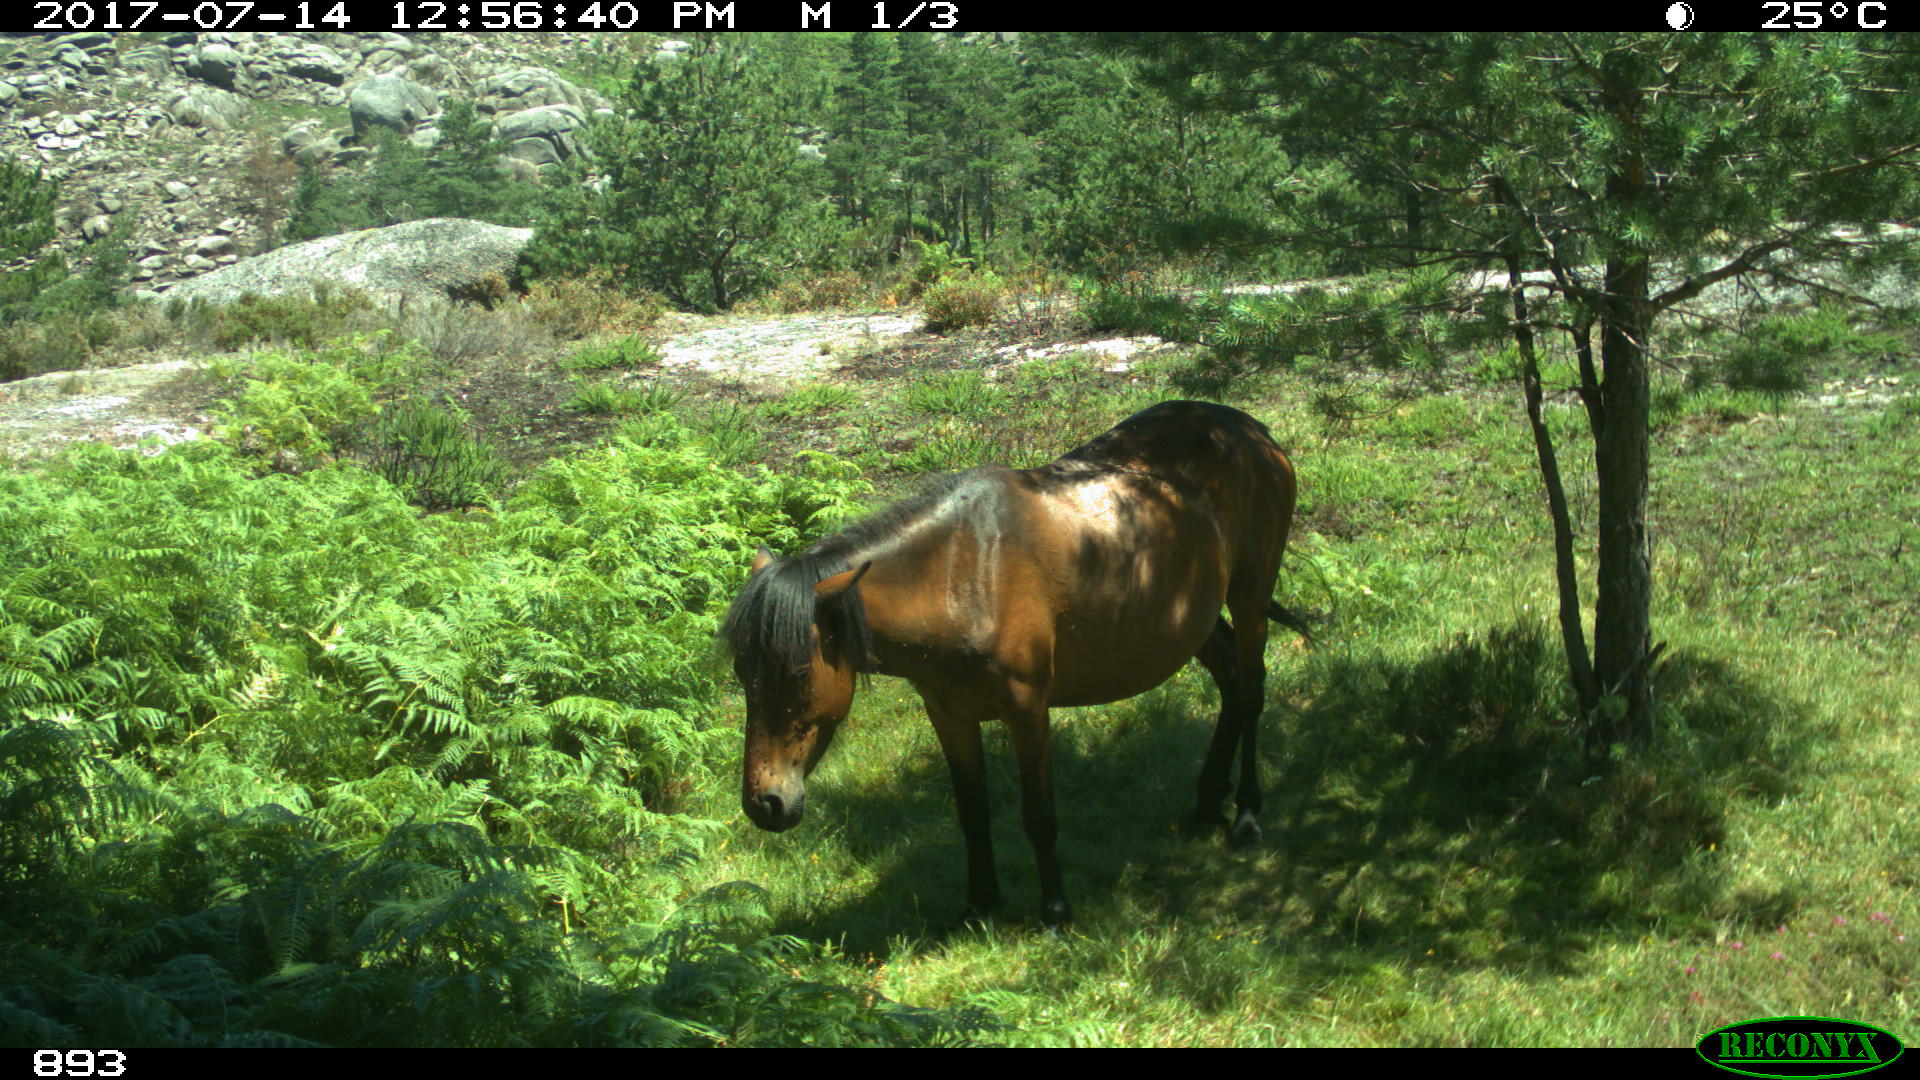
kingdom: Animalia
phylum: Chordata
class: Mammalia
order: Perissodactyla
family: Equidae
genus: Equus
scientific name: Equus caballus
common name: Horse
